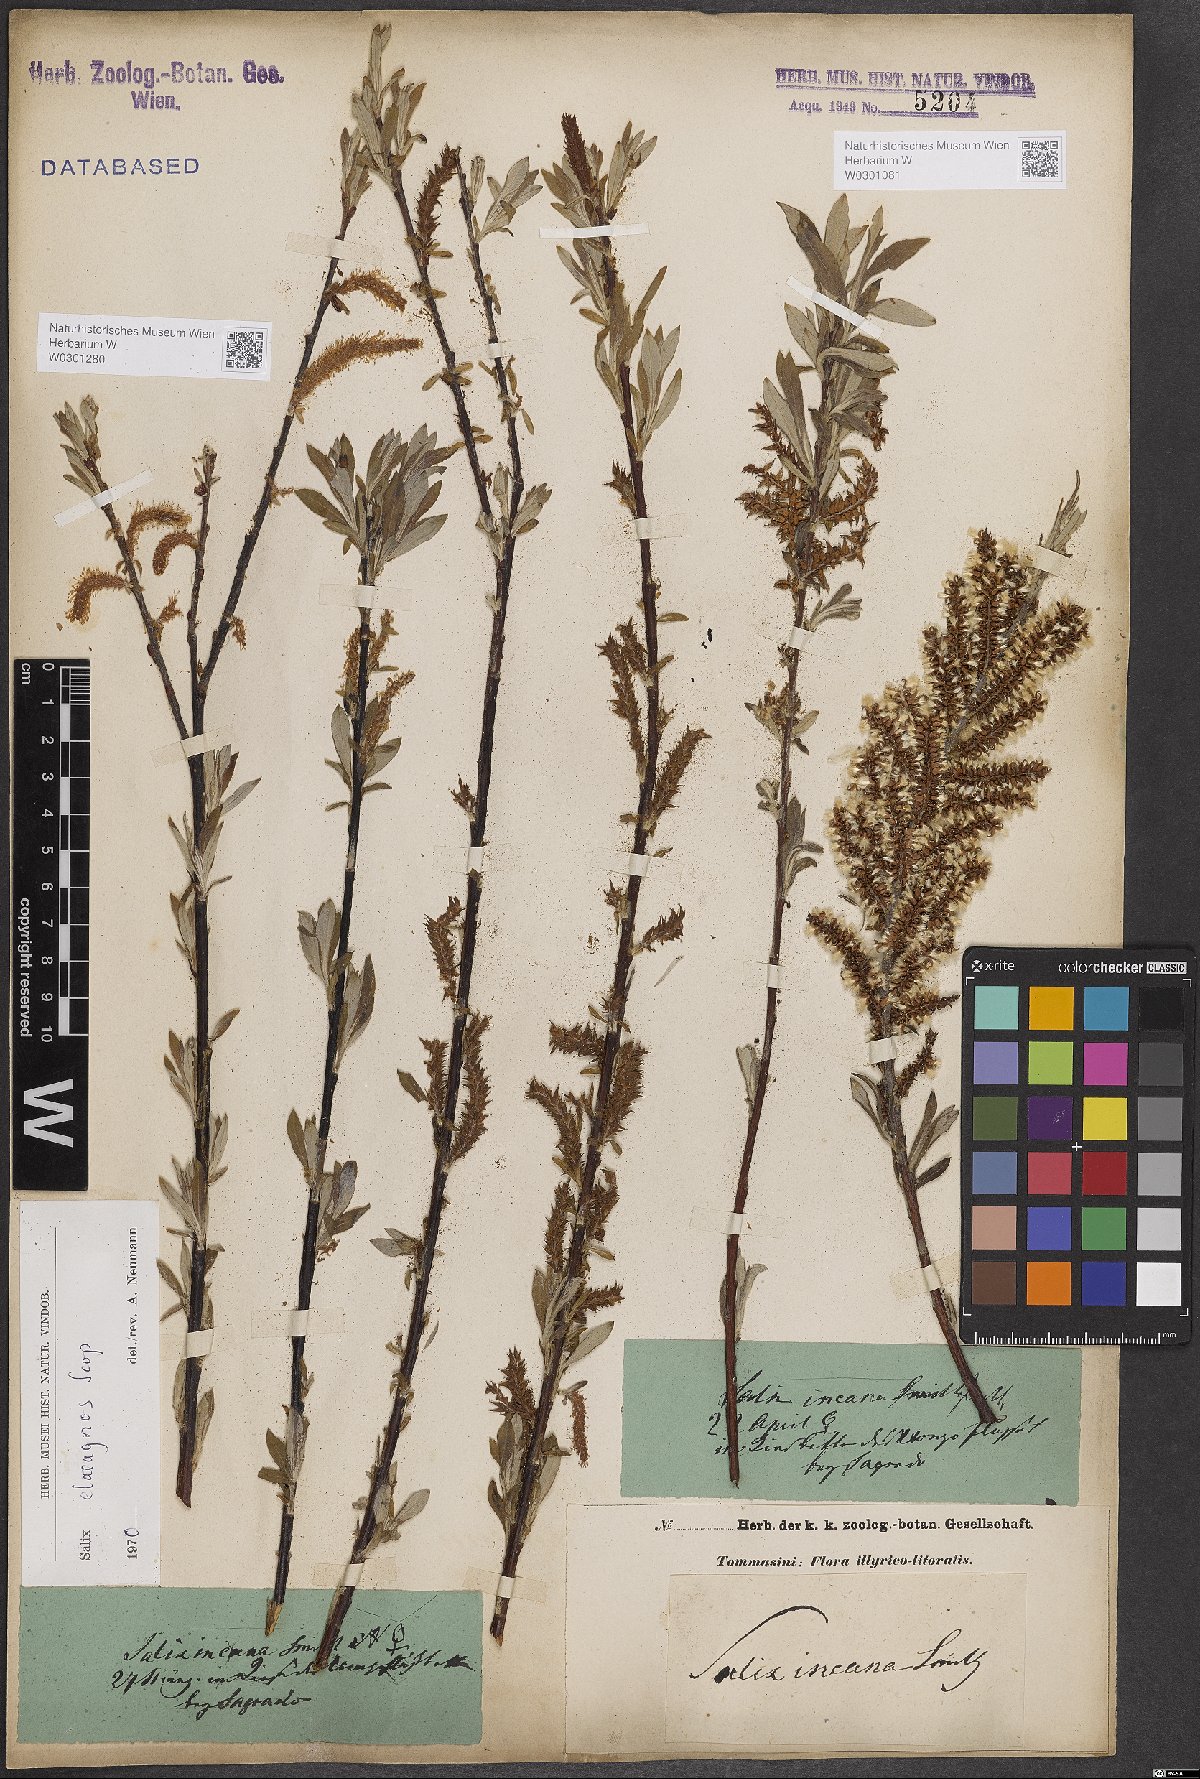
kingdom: Plantae
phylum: Tracheophyta
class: Magnoliopsida
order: Malpighiales
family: Salicaceae
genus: Salix
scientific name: Salix eleagnos
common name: Elaeagnus willow
